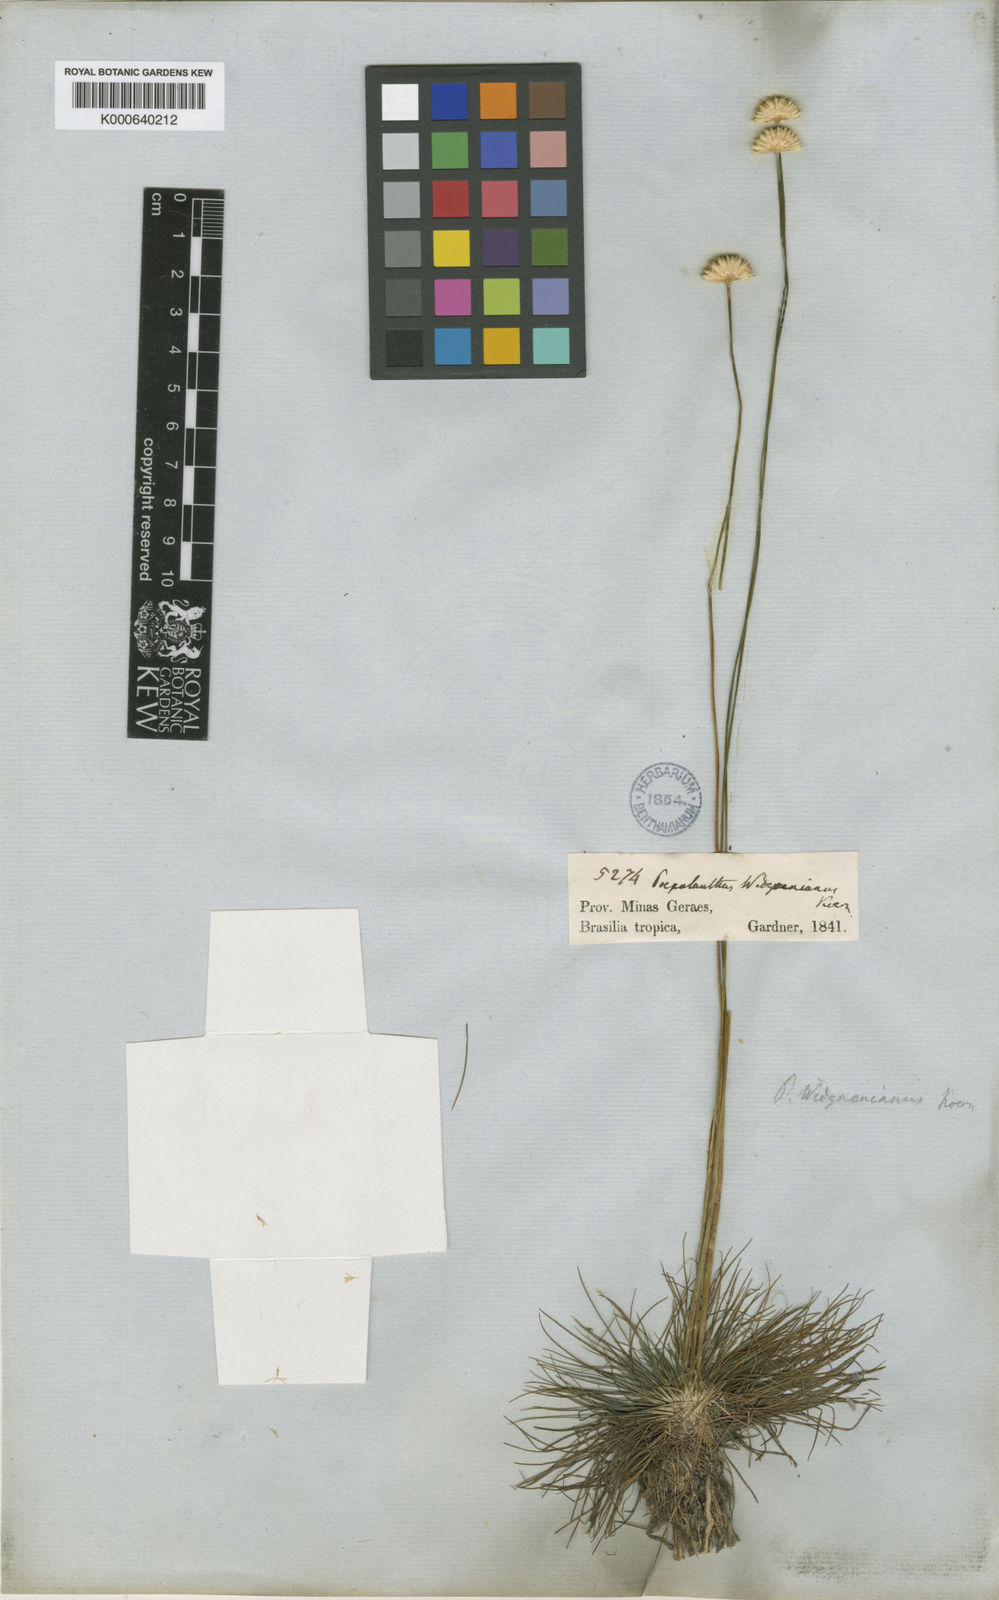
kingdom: Plantae
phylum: Tracheophyta
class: Liliopsida
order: Poales
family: Eriocaulaceae
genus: Syngonanthus
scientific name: Syngonanthus
